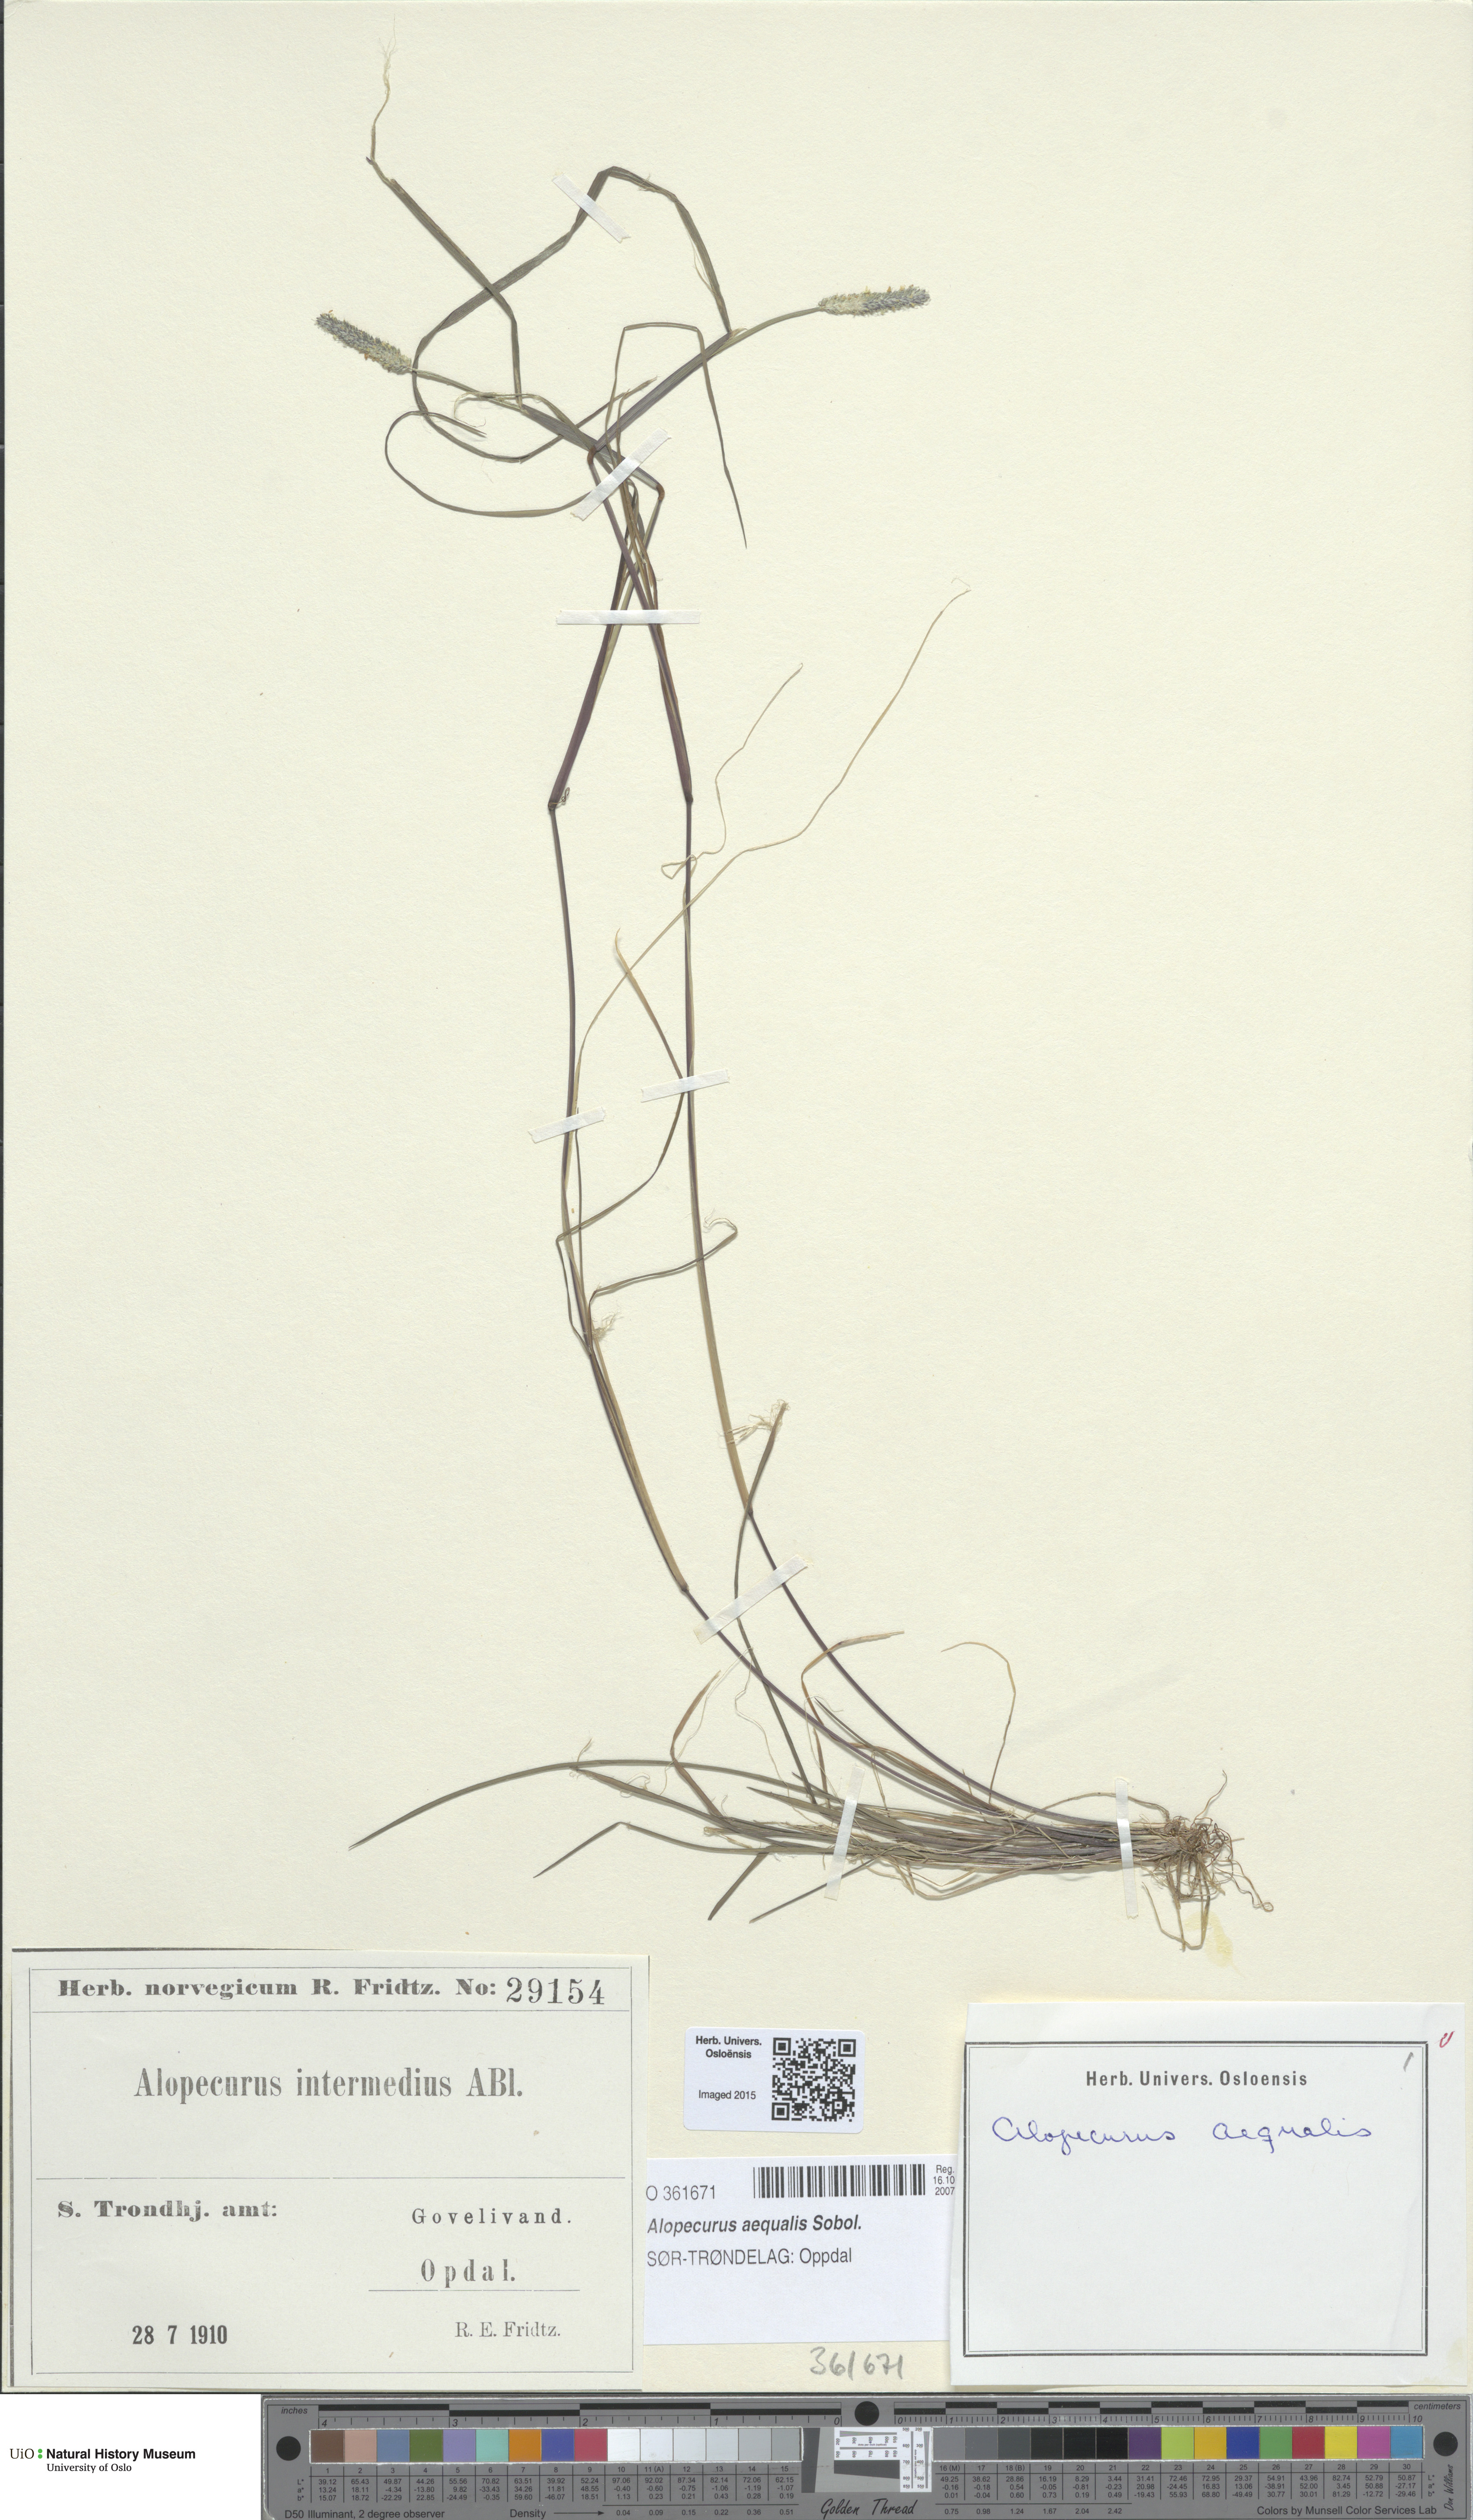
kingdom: Plantae
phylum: Tracheophyta
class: Liliopsida
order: Poales
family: Poaceae
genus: Alopecurus
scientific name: Alopecurus aequalis
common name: Orange foxtail
